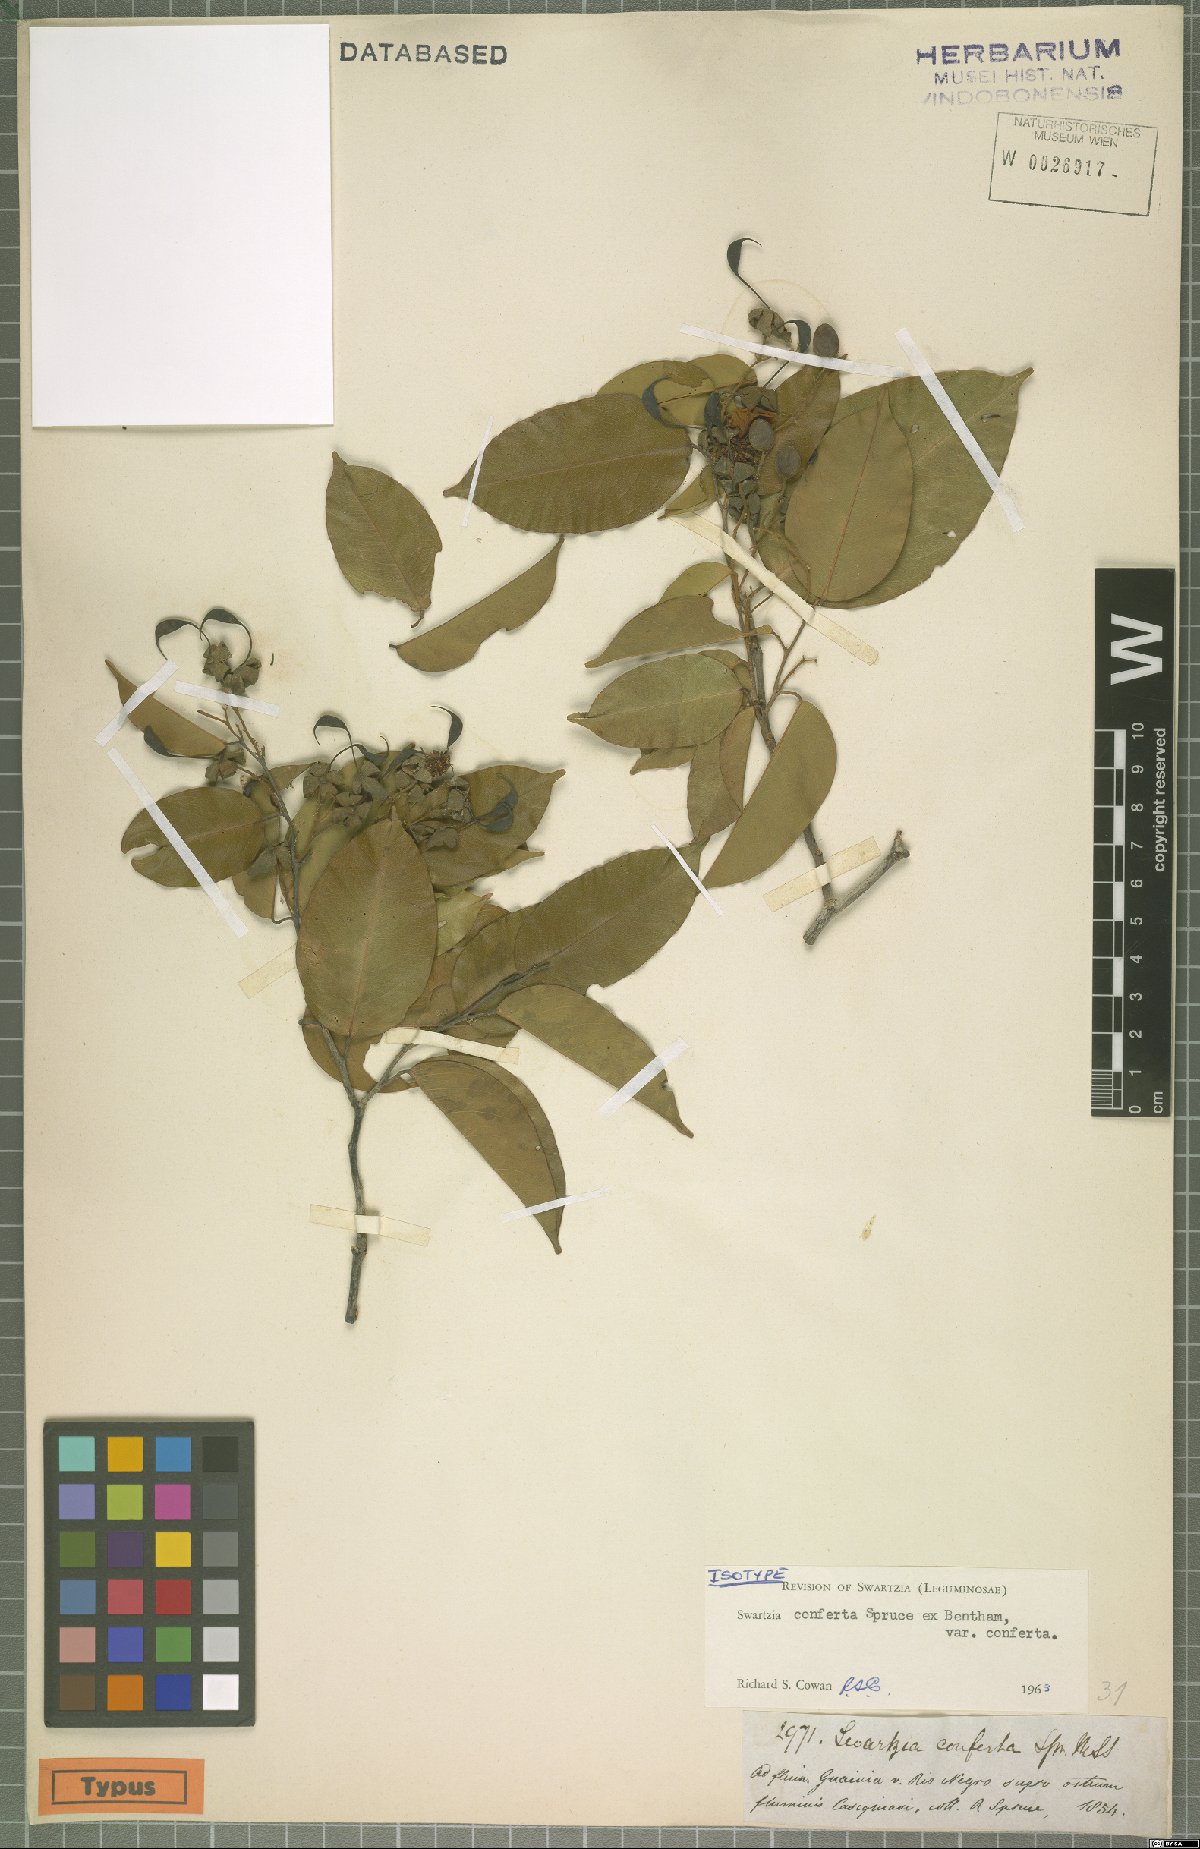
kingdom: Plantae
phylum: Tracheophyta
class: Magnoliopsida
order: Fabales
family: Fabaceae
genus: Swartzia
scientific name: Swartzia conferta
